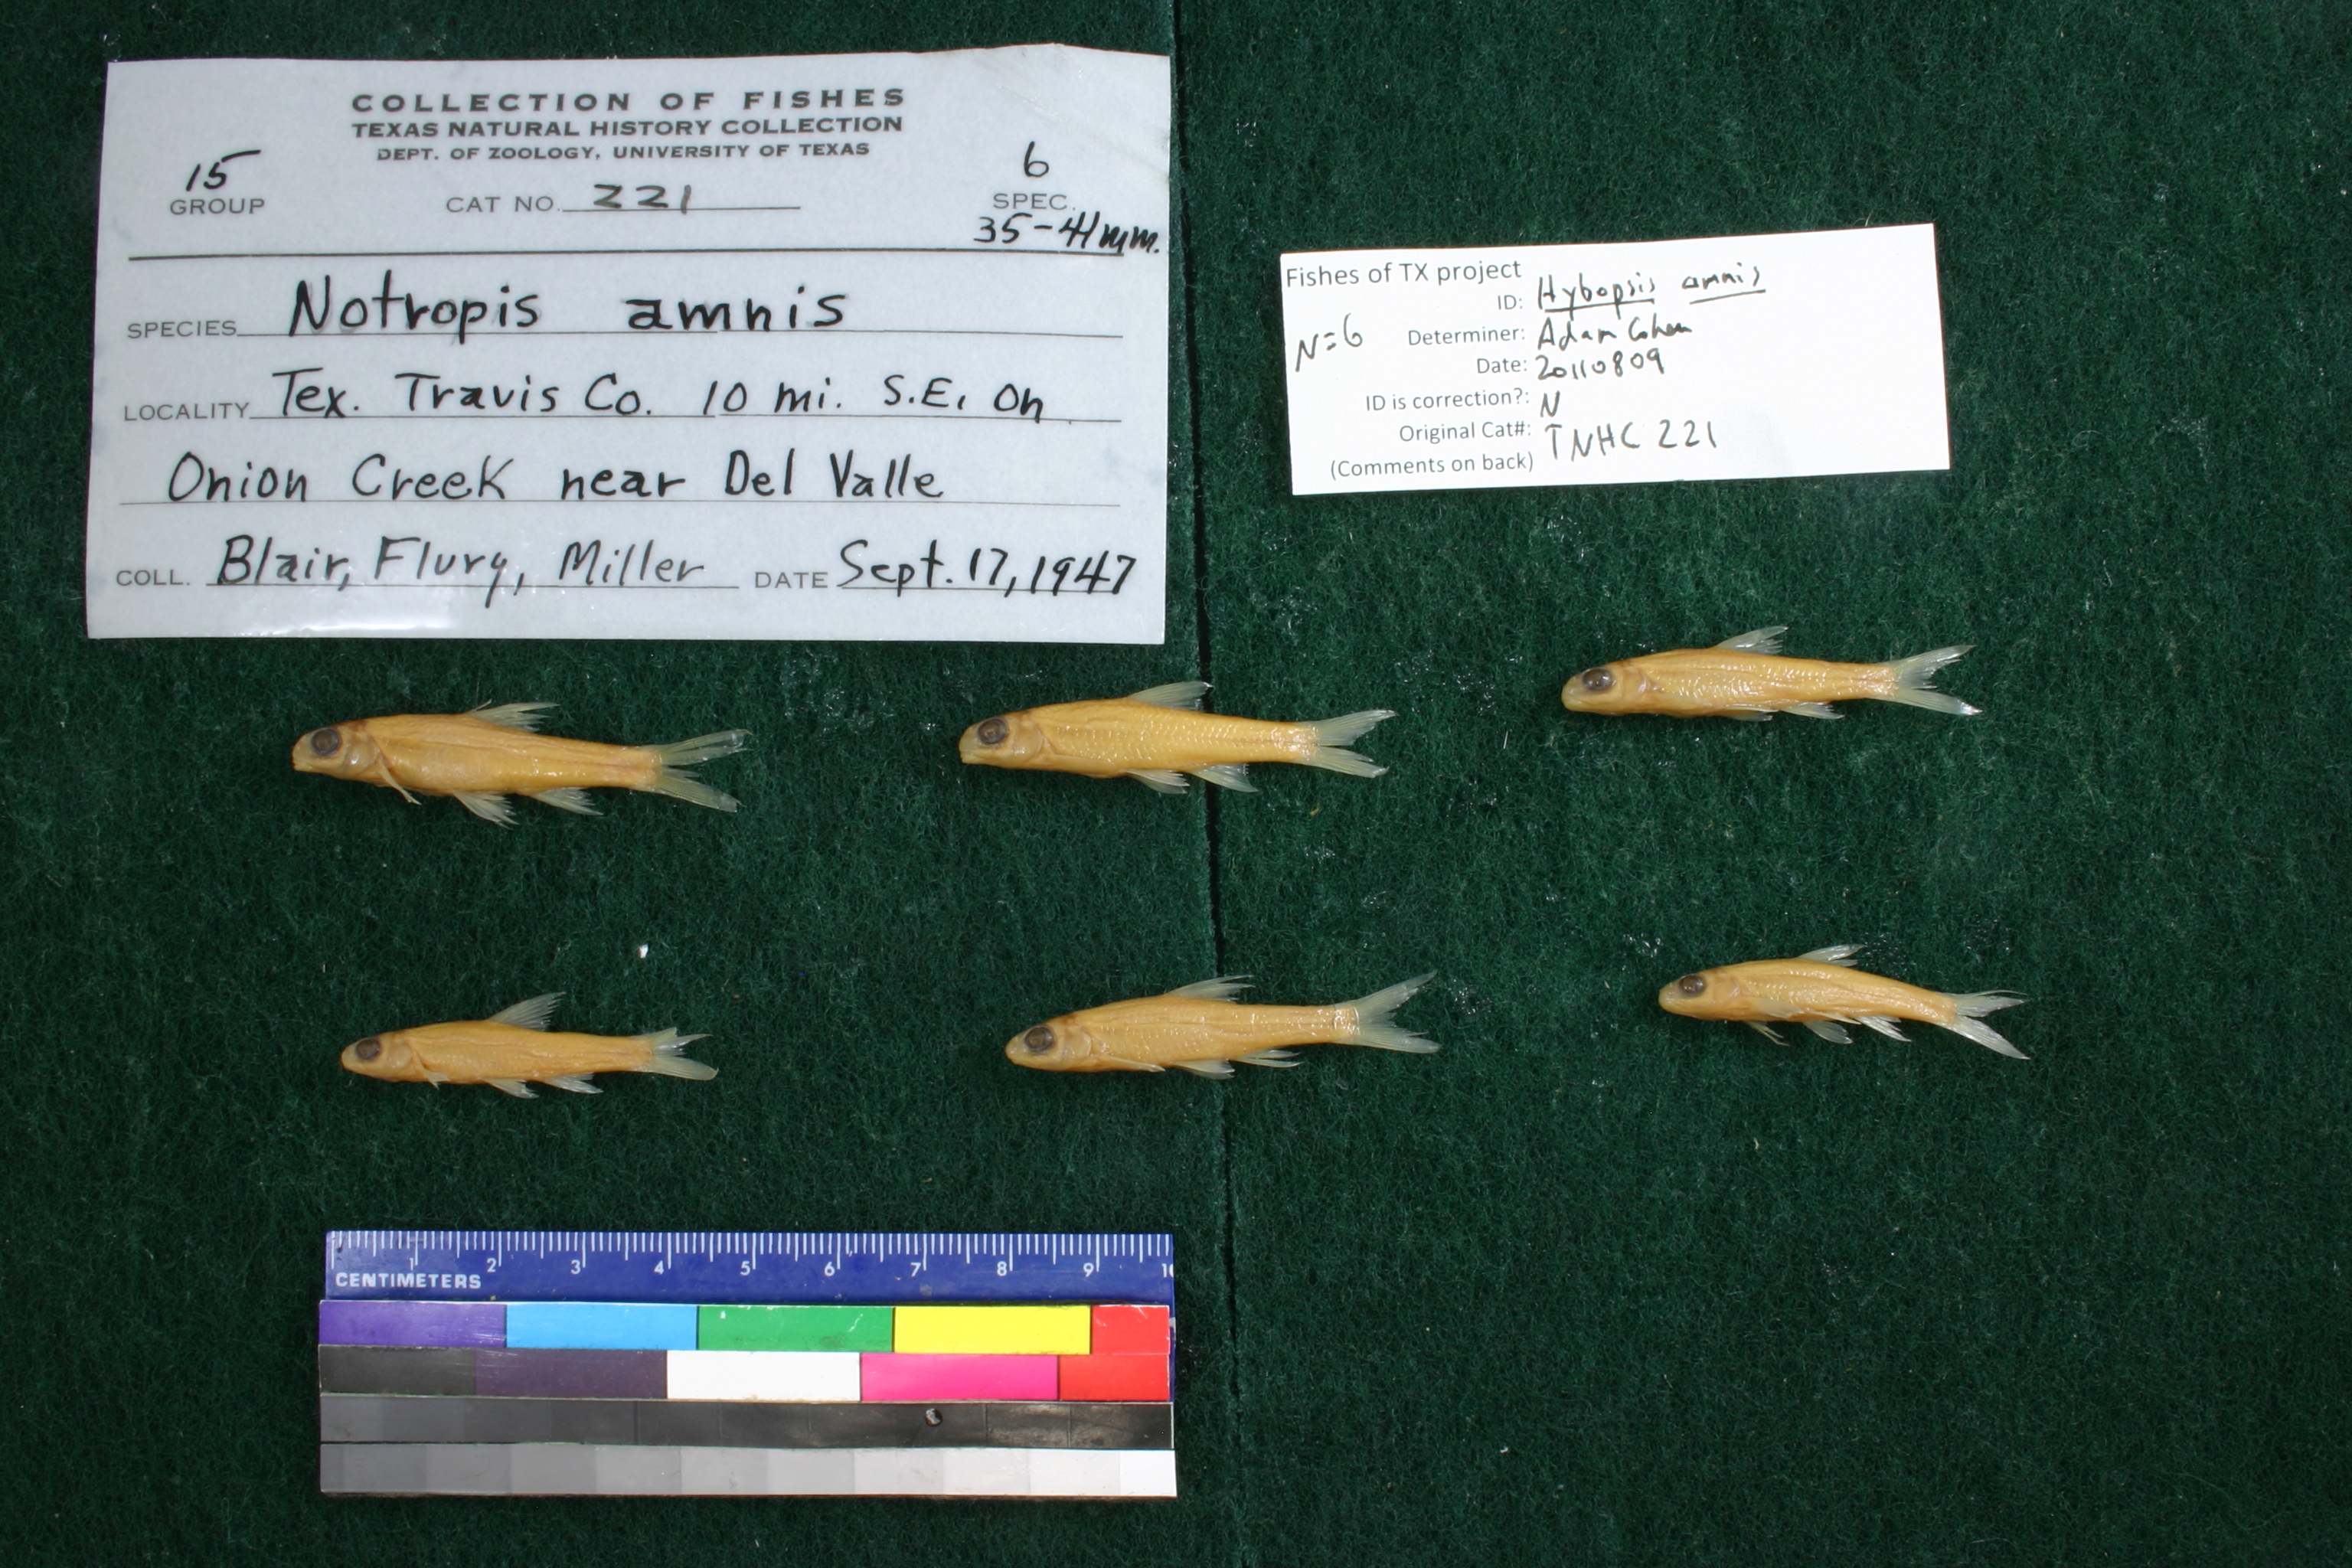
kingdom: Animalia
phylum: Chordata
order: Cypriniformes
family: Cyprinidae
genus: Hybopsis
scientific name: Hybopsis amnis
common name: Pallid shiner
